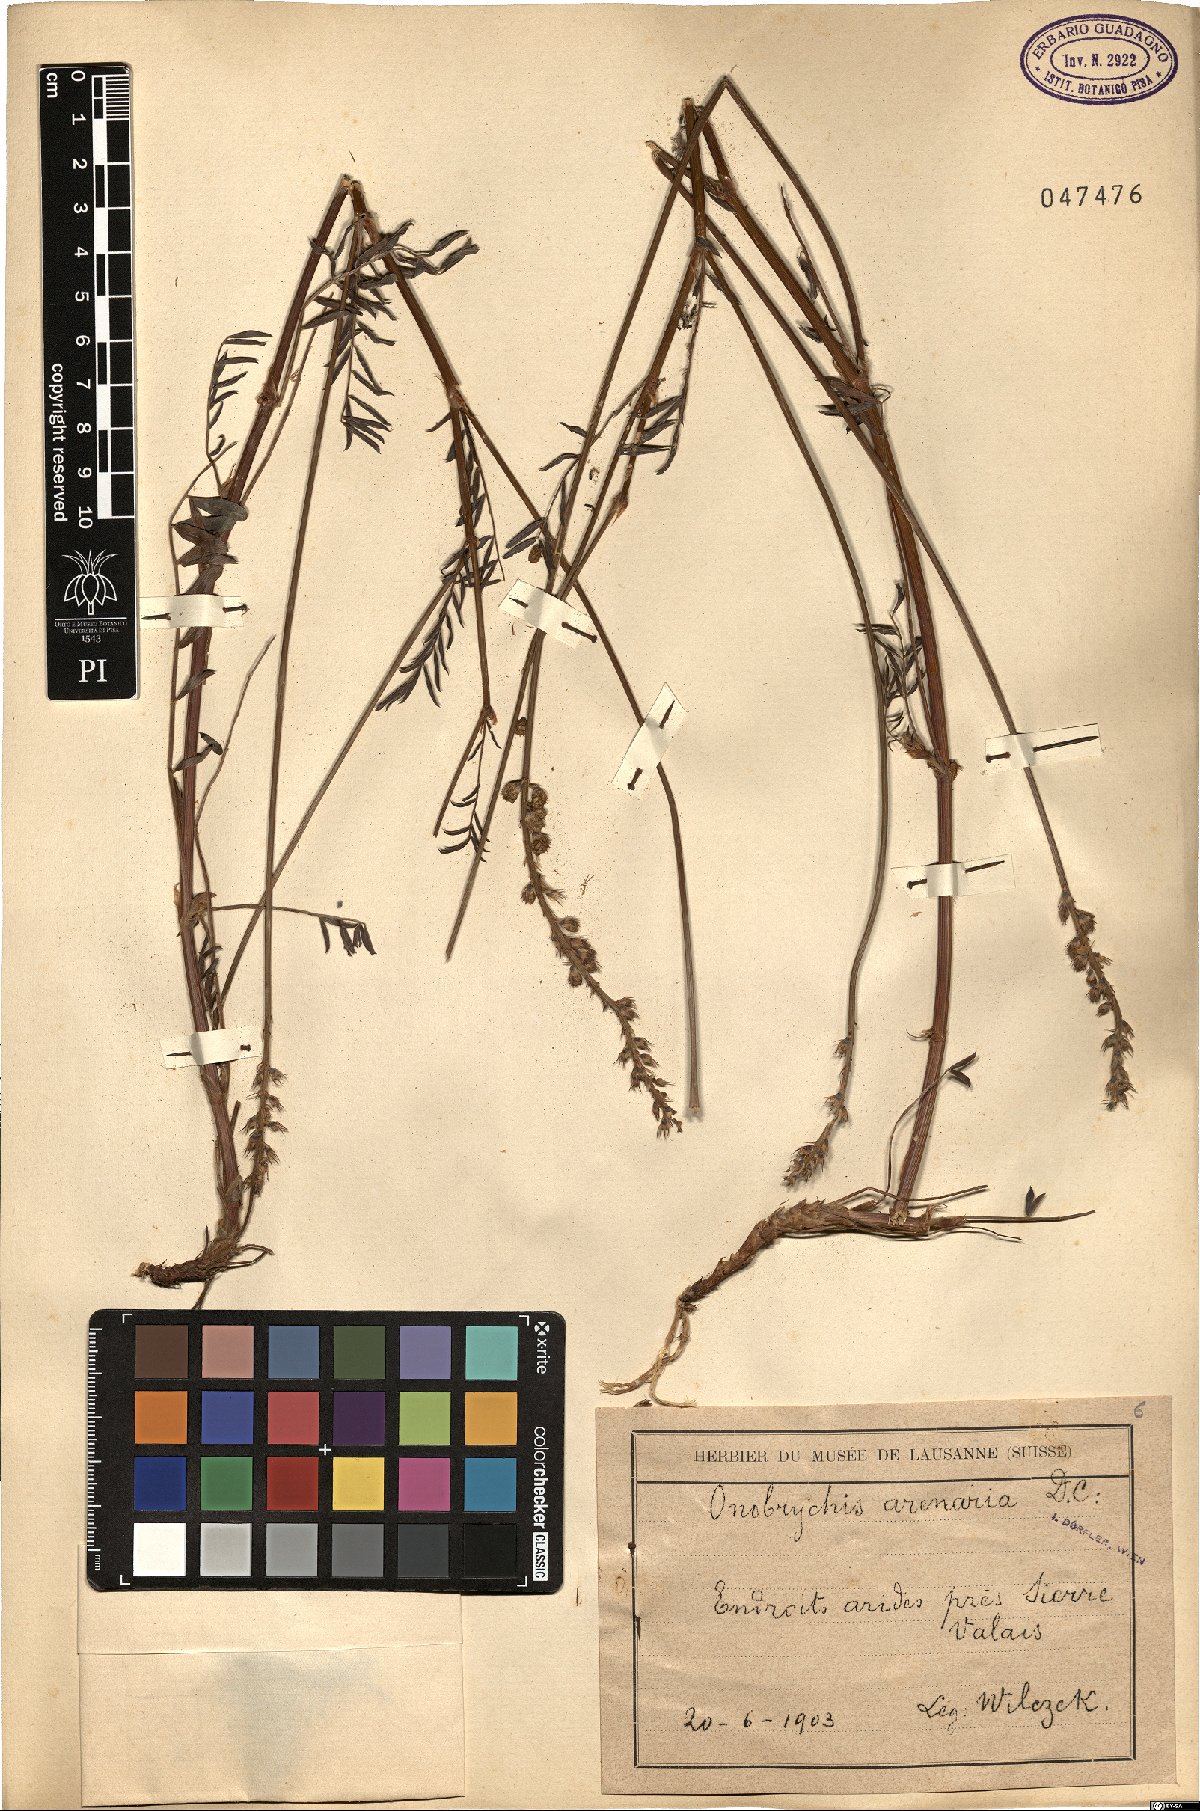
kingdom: Plantae
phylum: Tracheophyta
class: Magnoliopsida
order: Fabales
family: Fabaceae
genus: Onobrychis
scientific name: Onobrychis arenaria
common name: Sand esparcet
